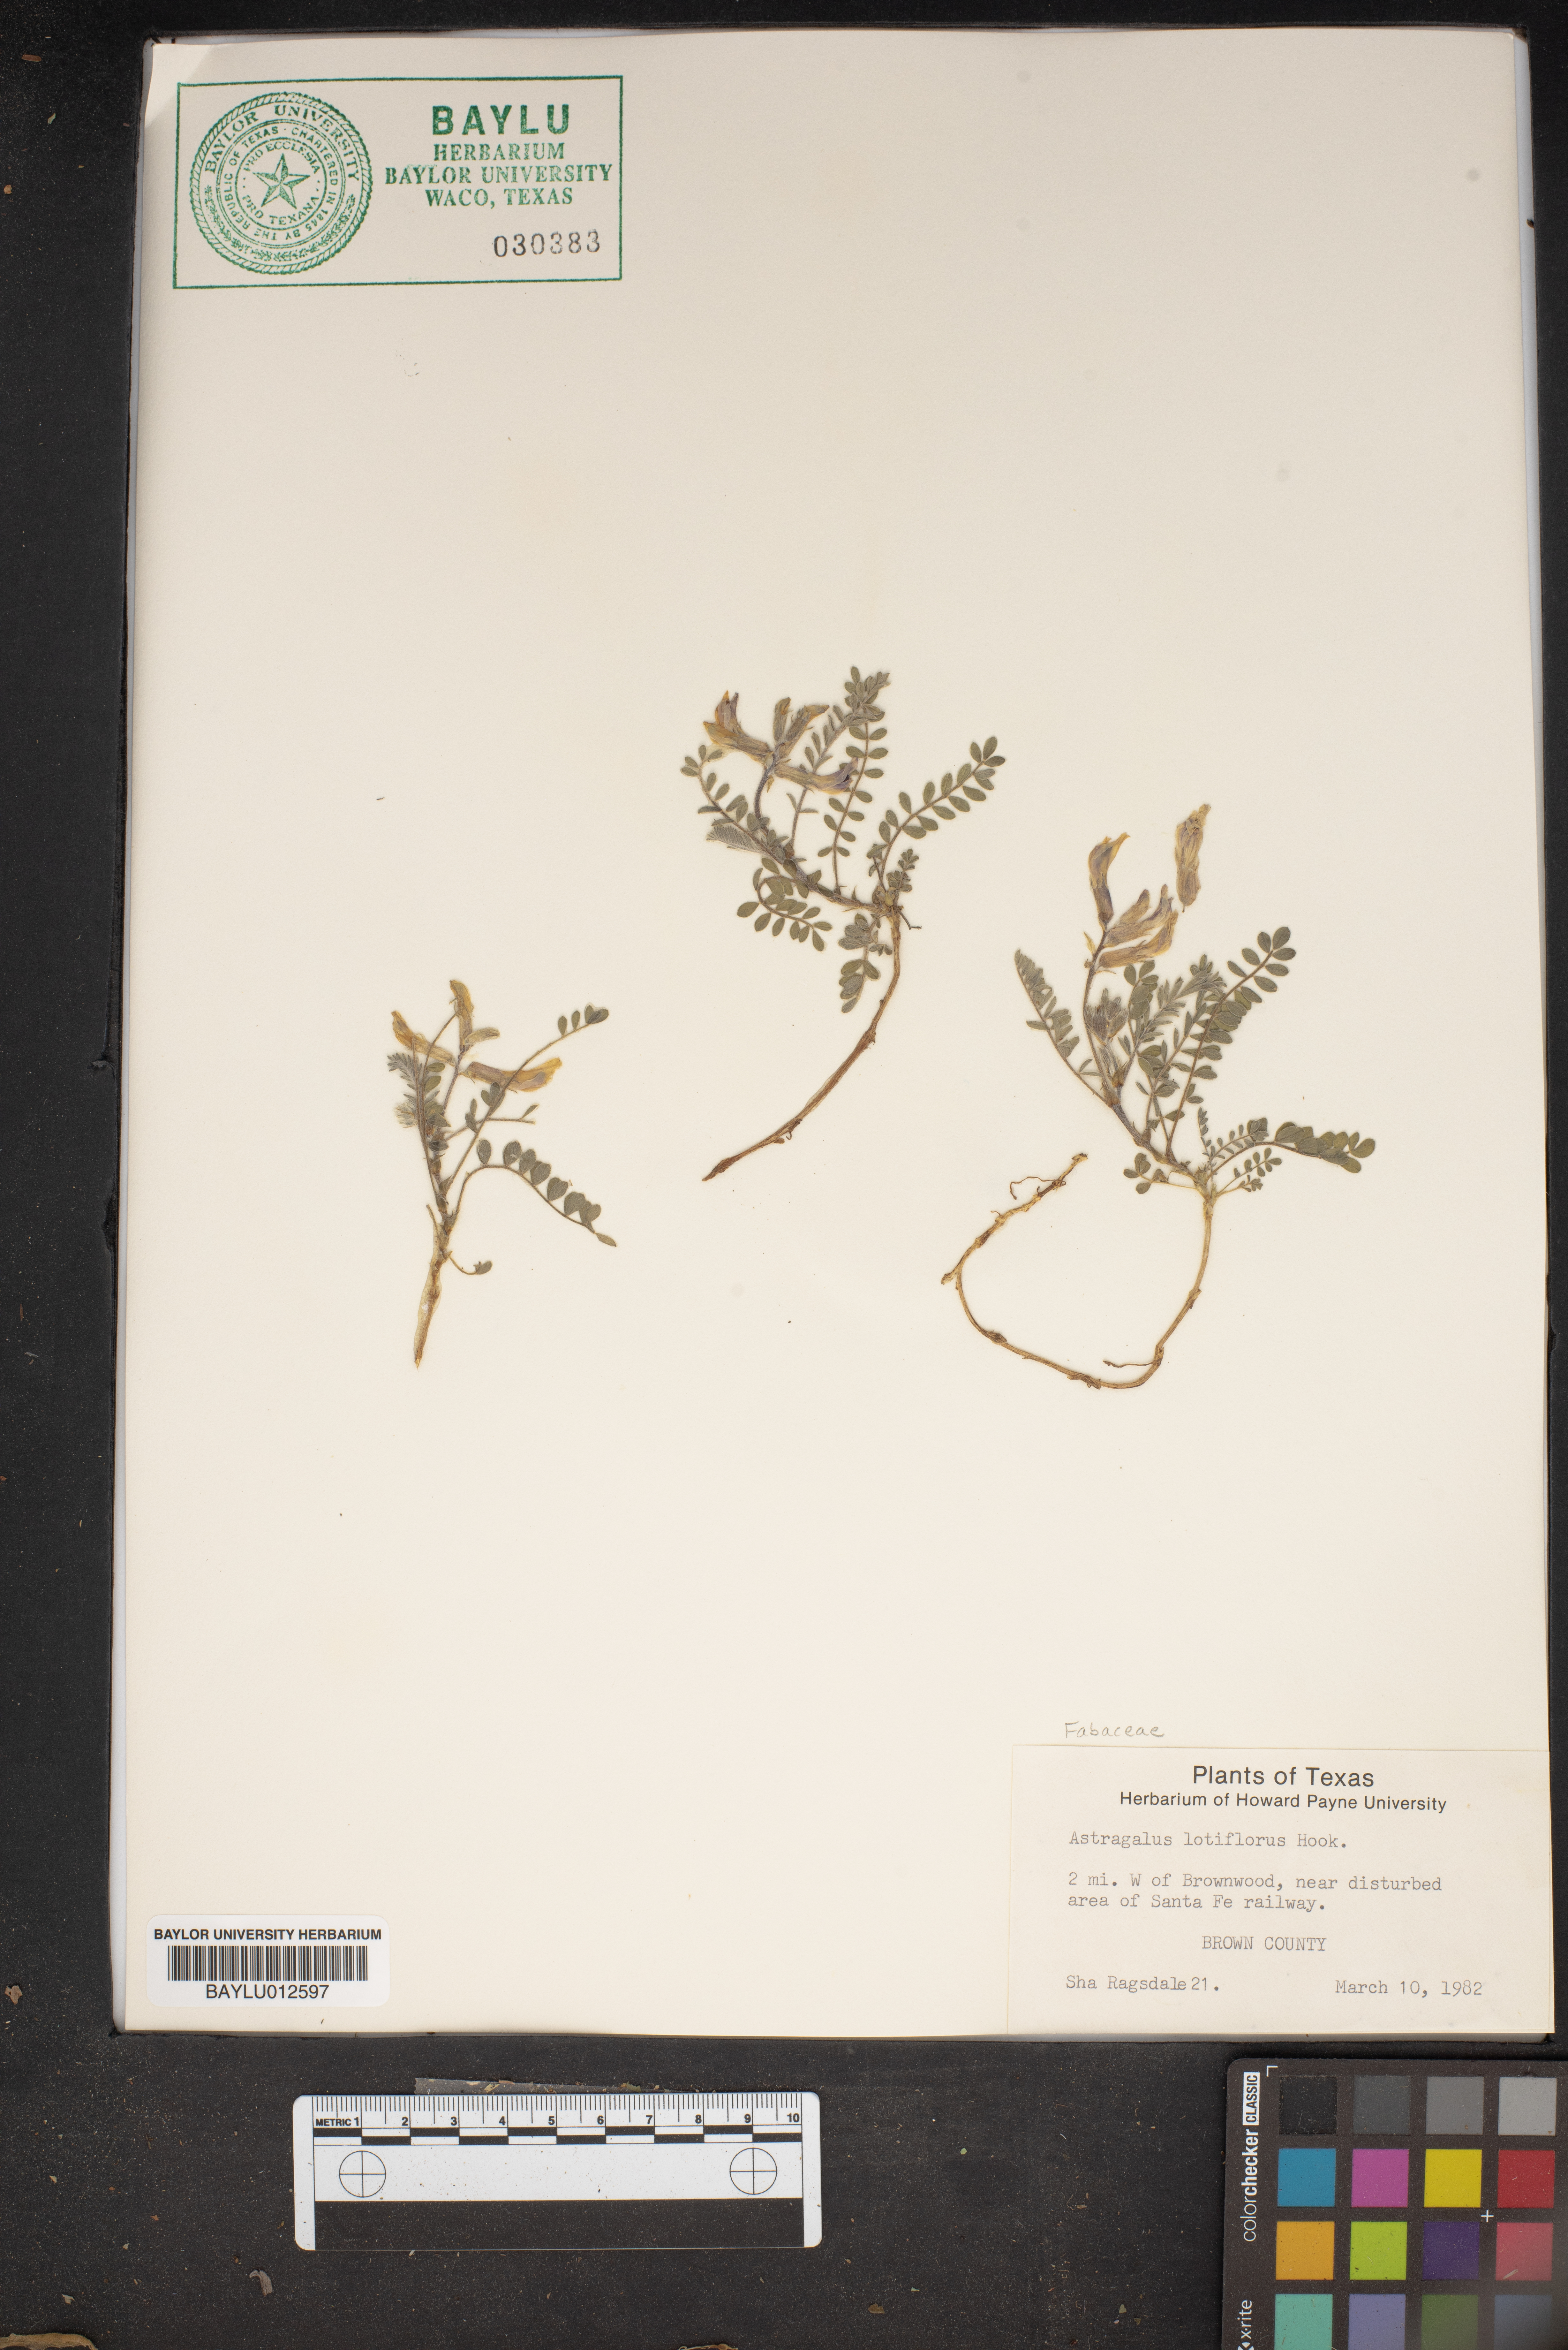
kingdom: Plantae
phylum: Tracheophyta
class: Magnoliopsida
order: Fabales
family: Fabaceae
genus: Astragalus
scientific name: Astragalus lotiflorus
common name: Lotus milk-vetch
